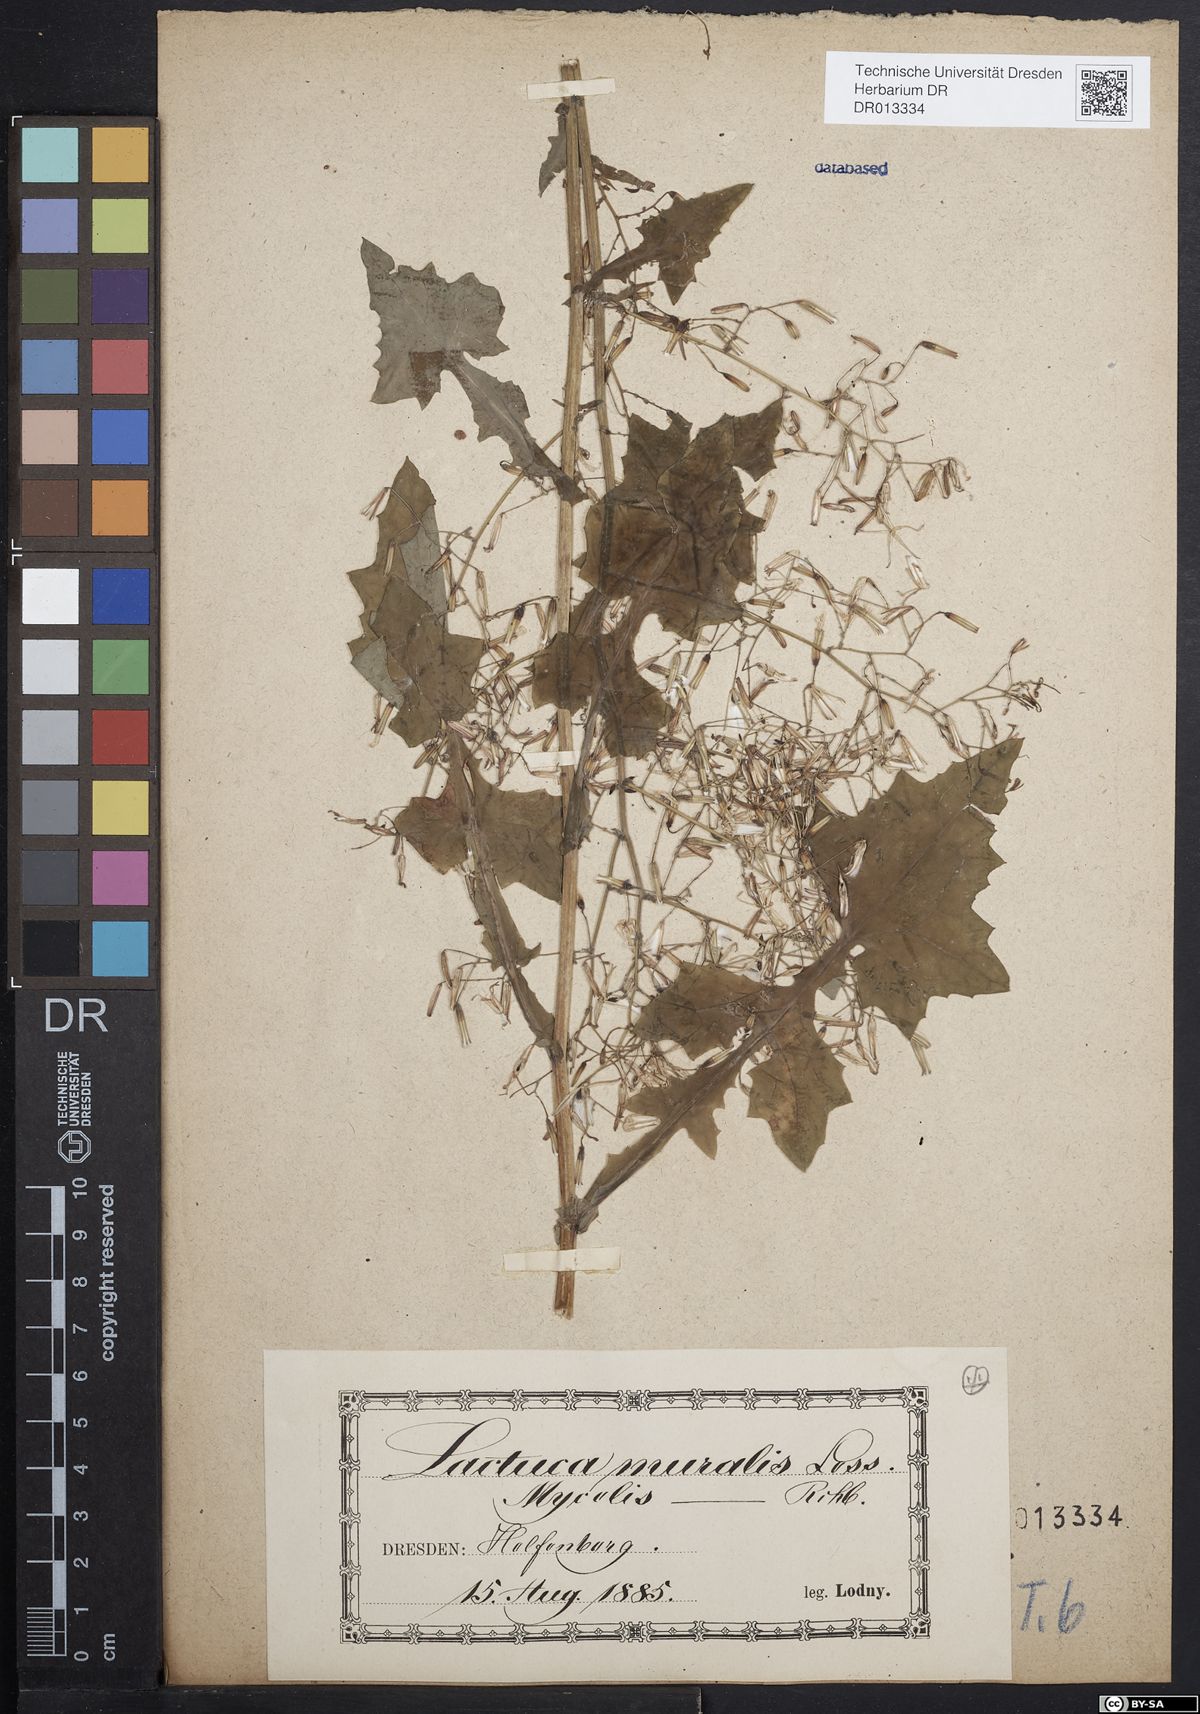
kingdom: Plantae
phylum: Tracheophyta
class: Magnoliopsida
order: Asterales
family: Asteraceae
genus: Mycelis
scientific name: Mycelis muralis
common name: Wall lettuce
